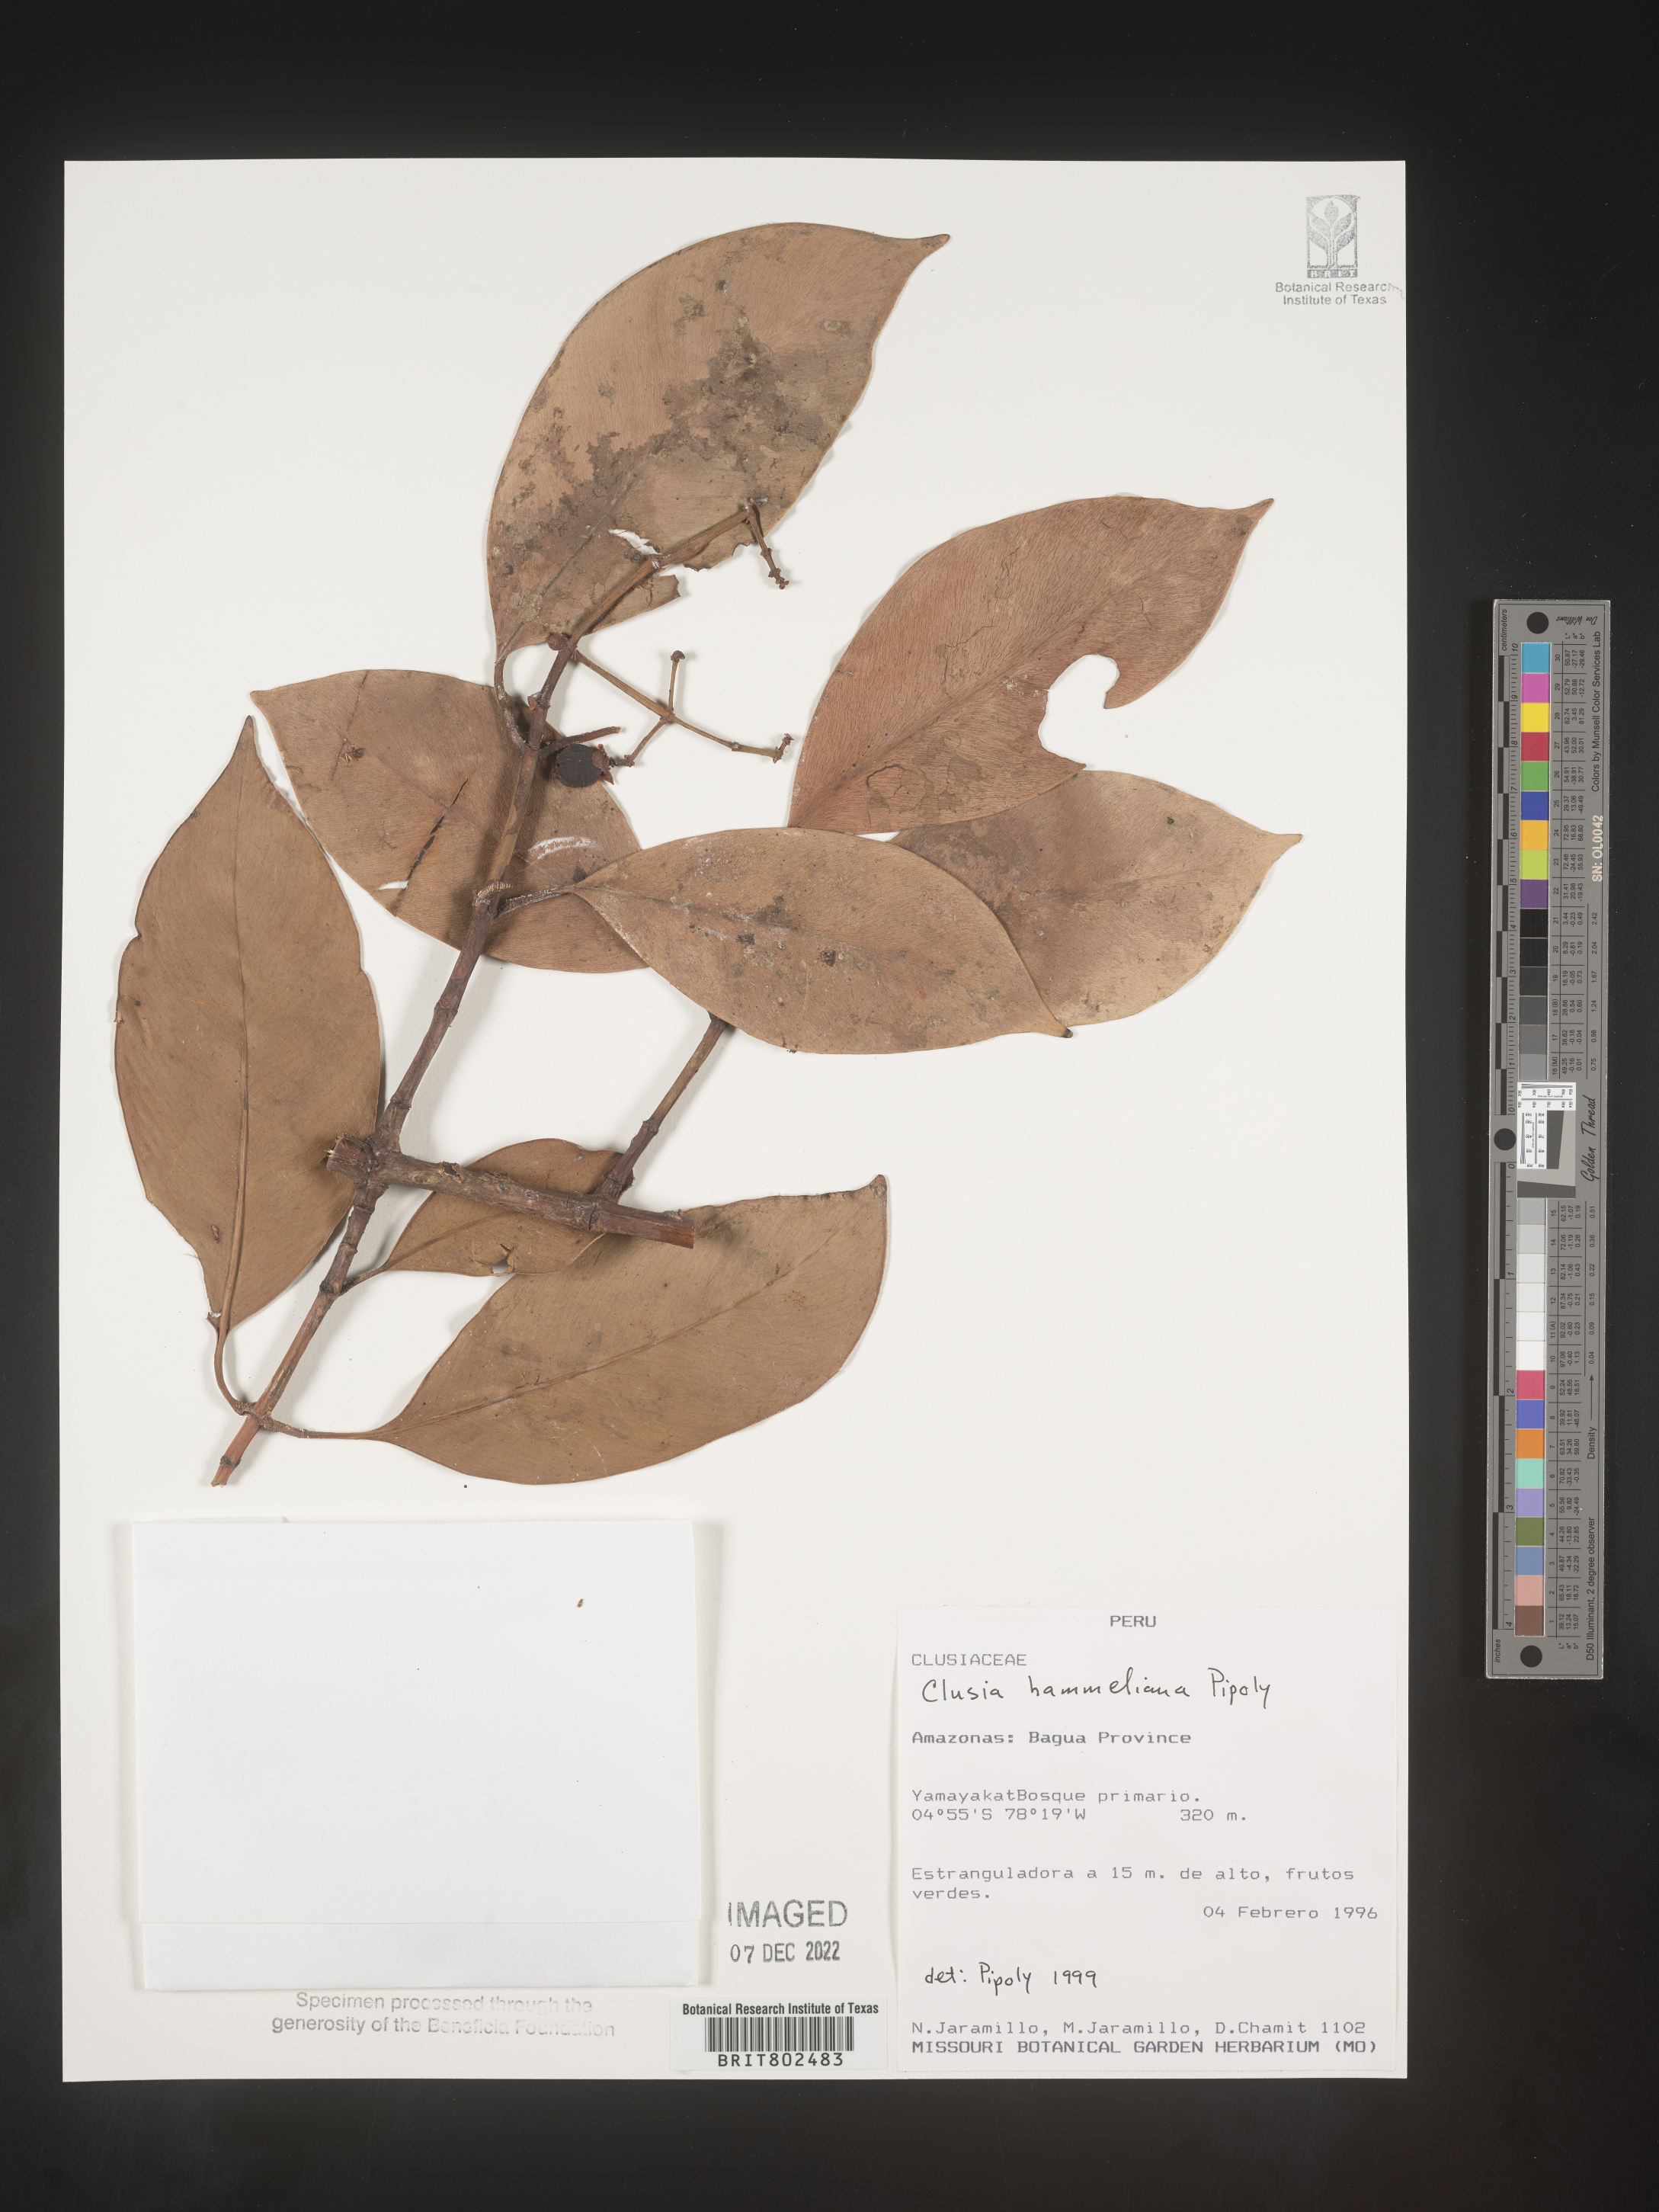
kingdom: Plantae
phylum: Tracheophyta
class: Magnoliopsida
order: Malpighiales
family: Clusiaceae
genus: Clusia
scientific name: Clusia hammeliana
